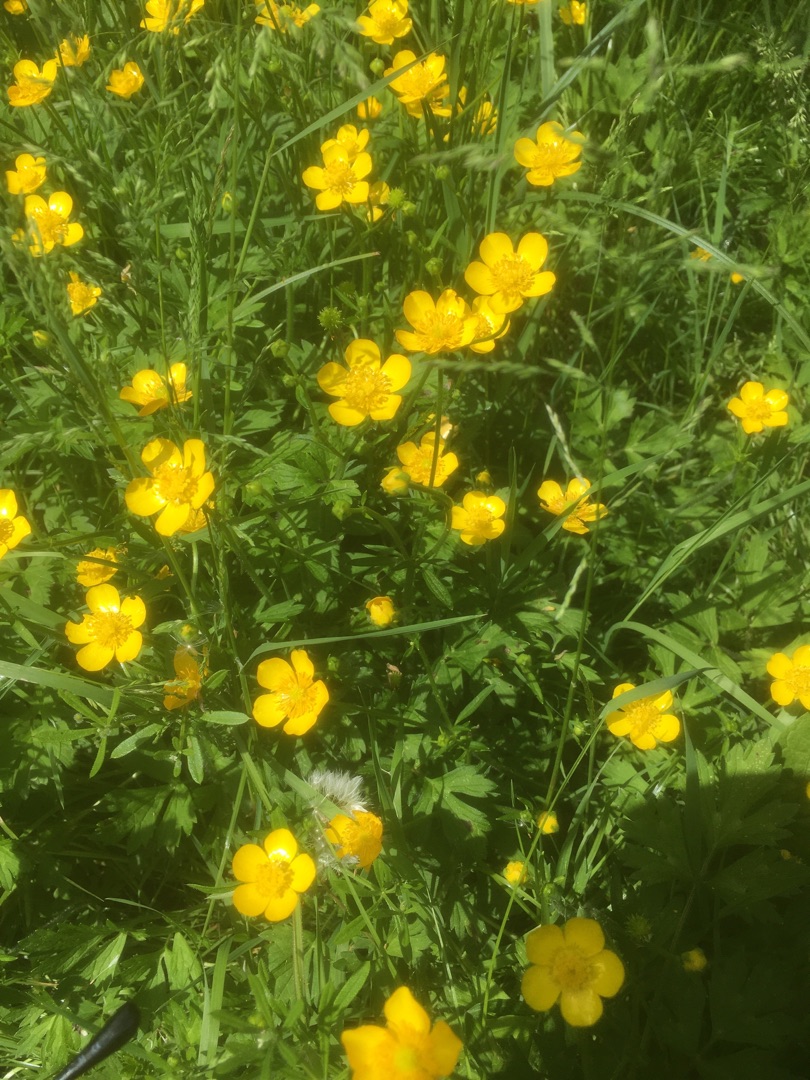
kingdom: Plantae
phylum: Tracheophyta
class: Magnoliopsida
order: Ranunculales
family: Ranunculaceae
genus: Ranunculus
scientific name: Ranunculus repens
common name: Lav ranunkel
